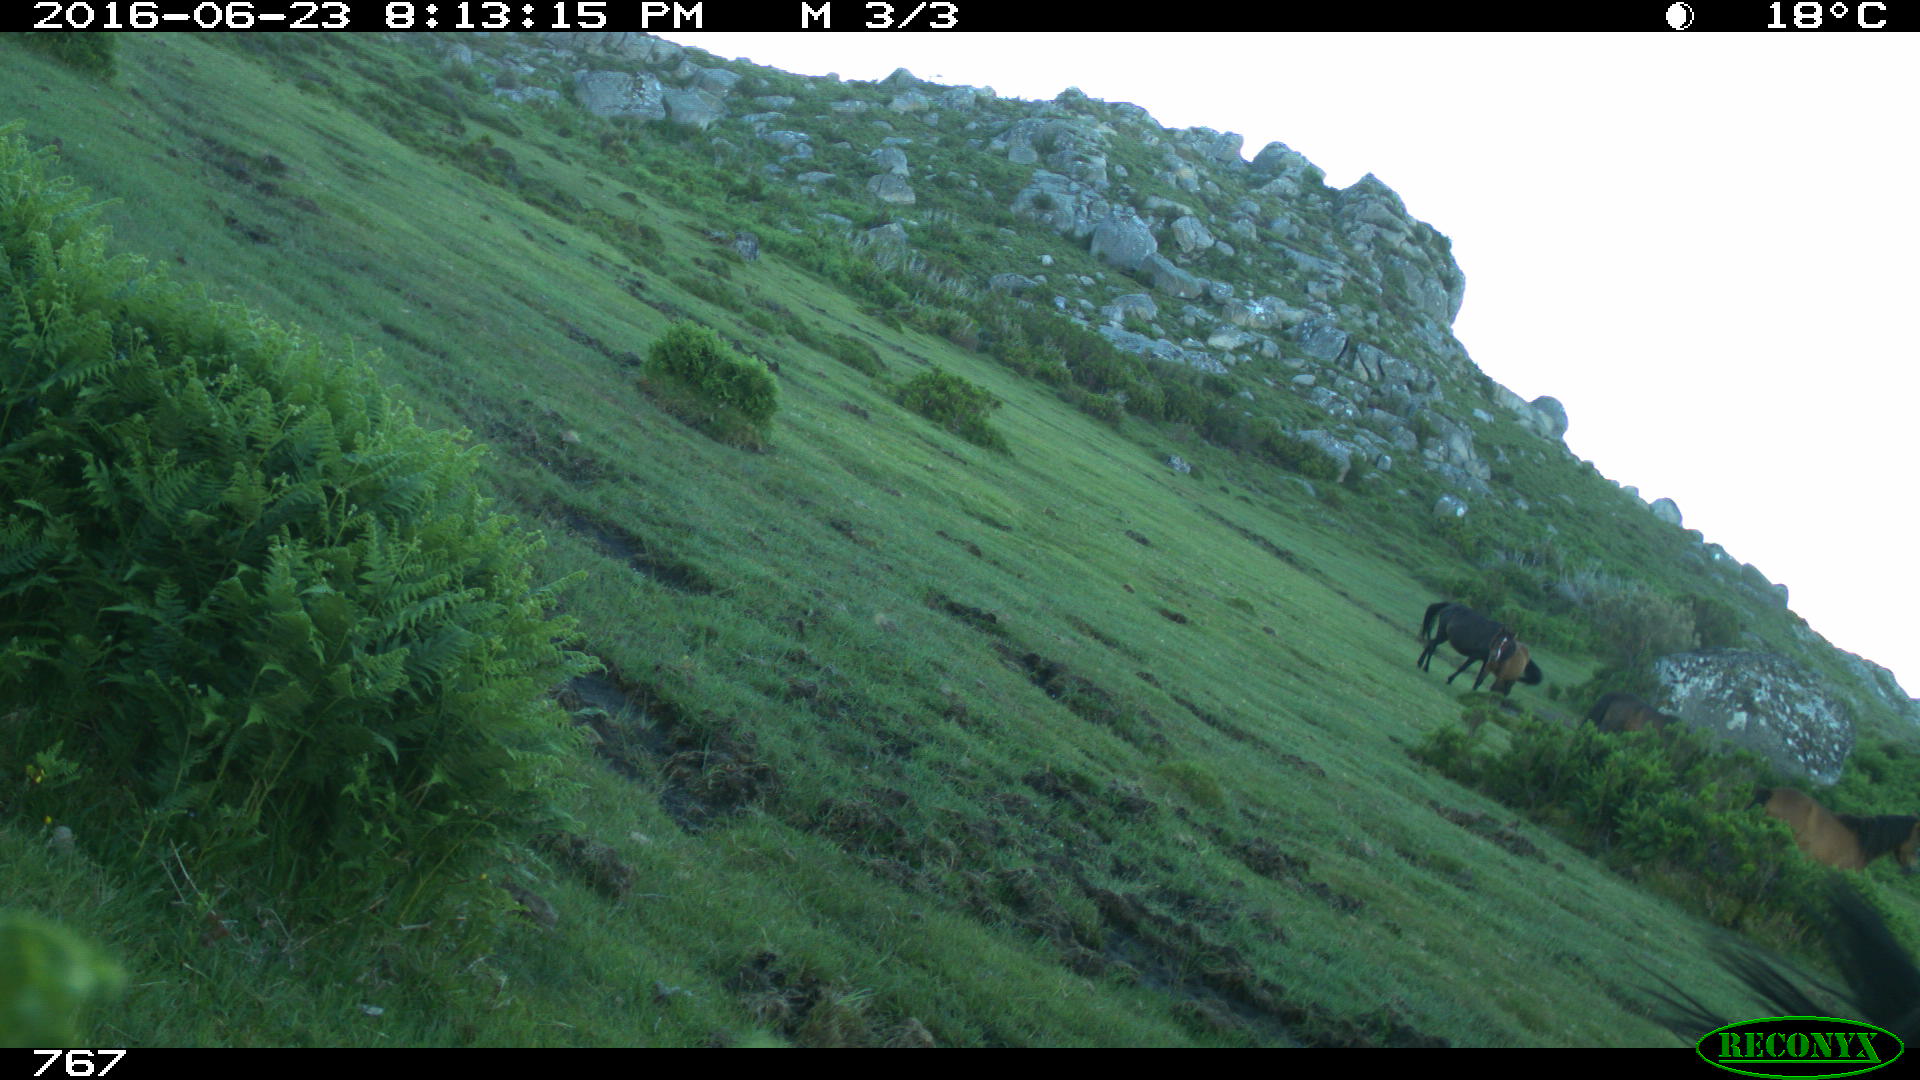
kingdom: Animalia
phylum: Chordata
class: Mammalia
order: Perissodactyla
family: Equidae
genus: Equus
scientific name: Equus caballus
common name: Horse
